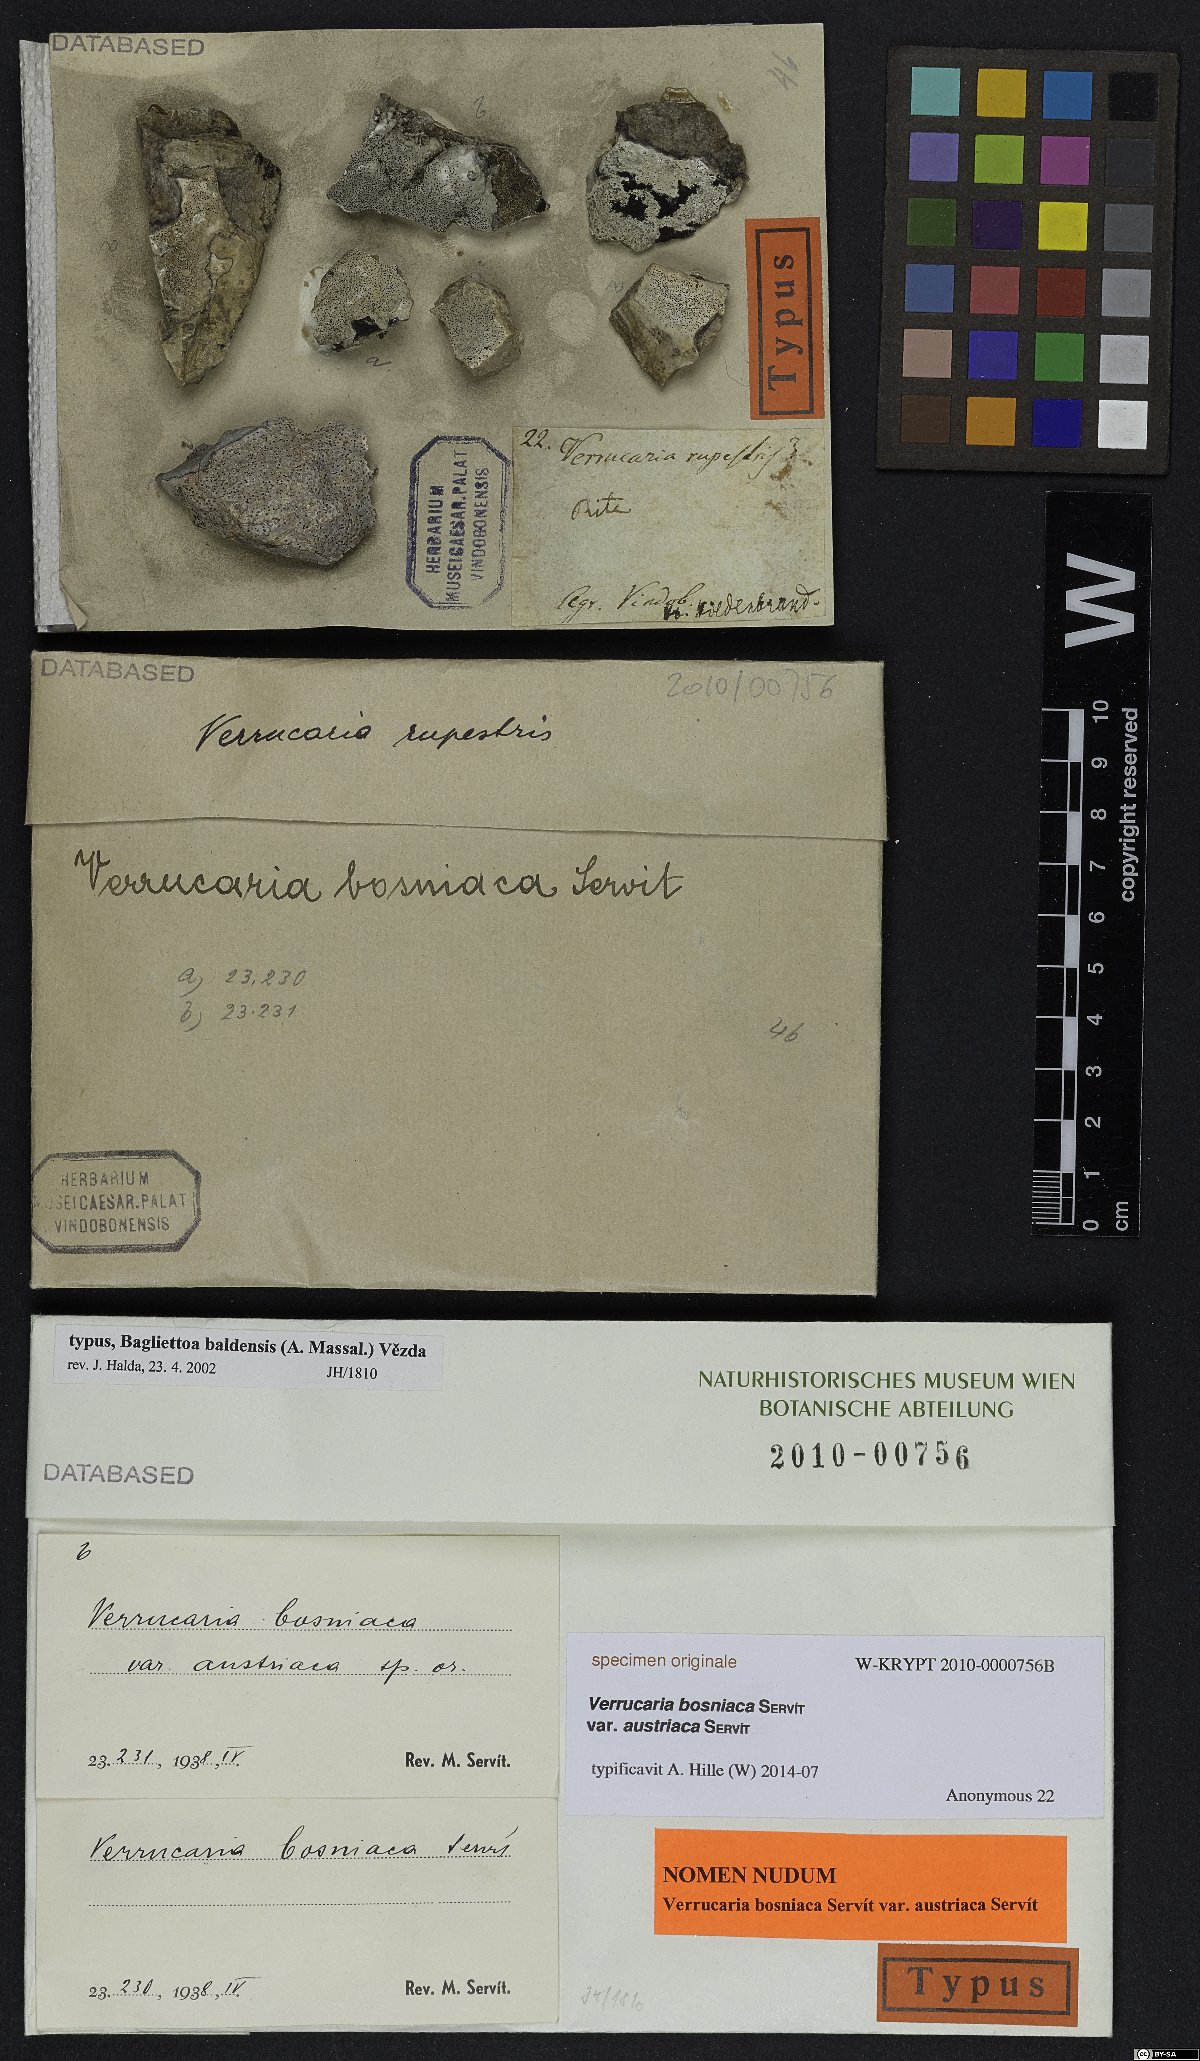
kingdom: Fungi
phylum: Ascomycota
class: Eurotiomycetes
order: Verrucariales
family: Verrucariaceae
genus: Bagliettoa
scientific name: Bagliettoa limborioides
